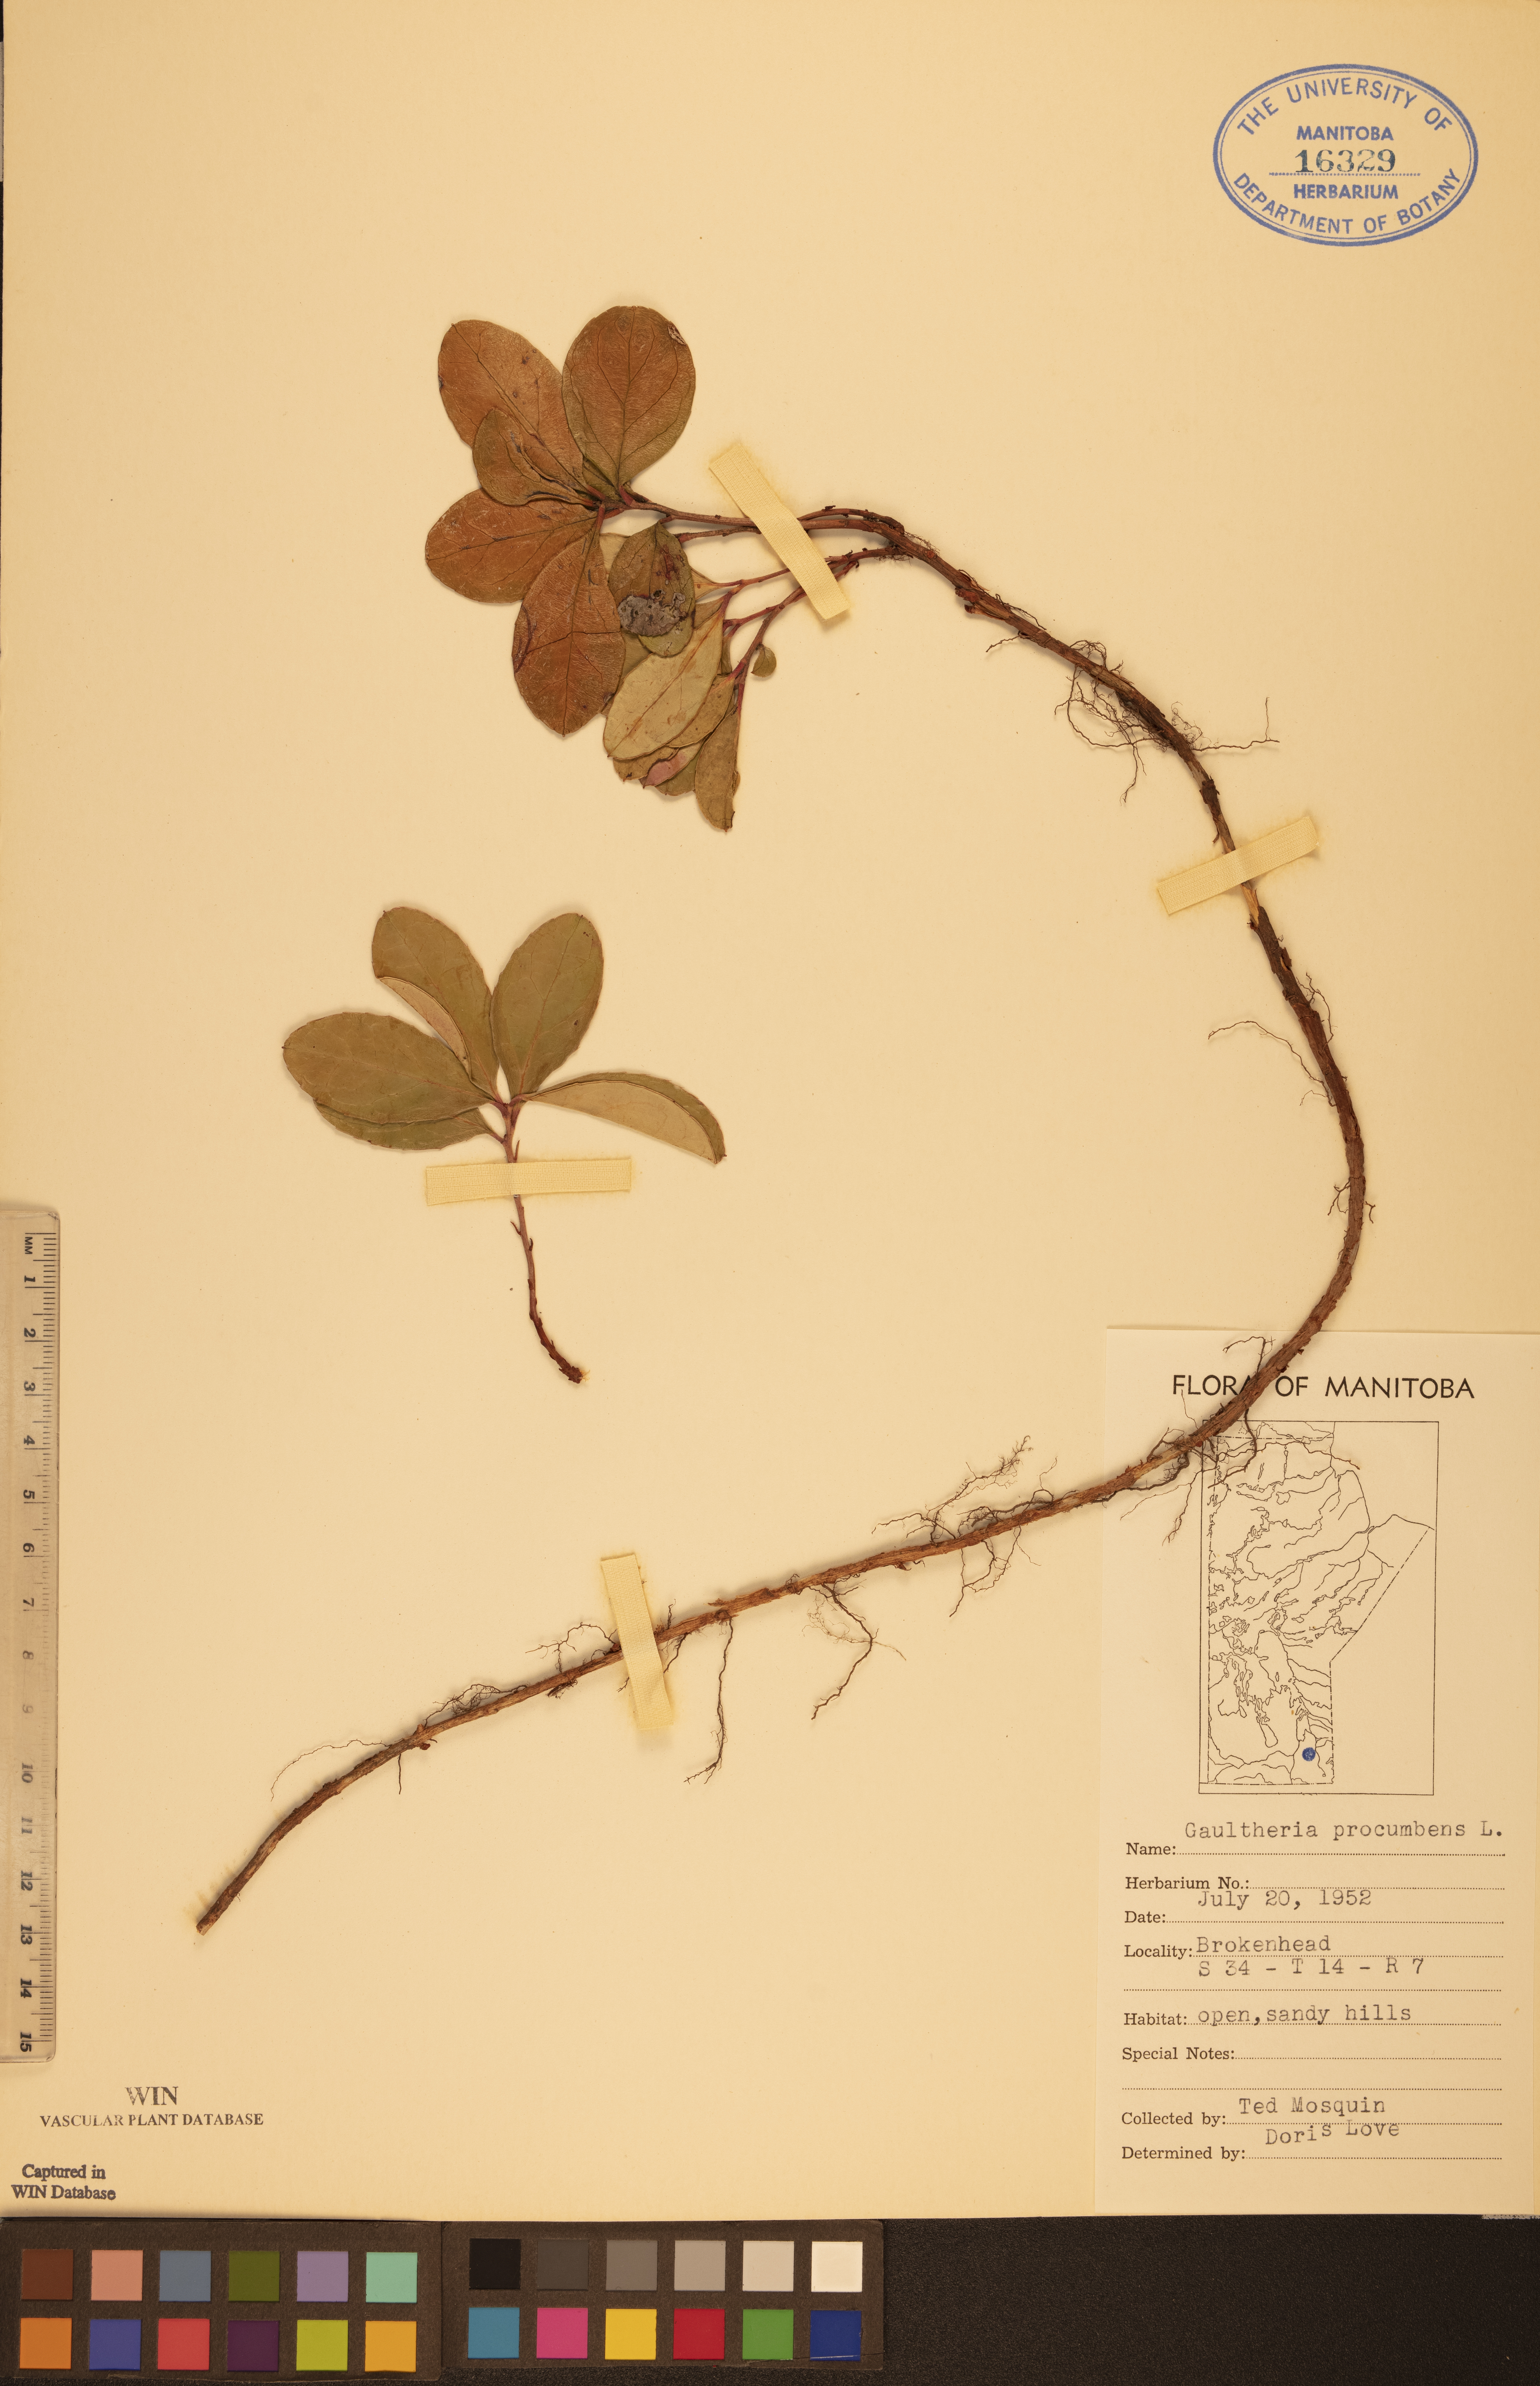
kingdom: Plantae
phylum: Tracheophyta
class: Magnoliopsida
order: Ericales
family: Ericaceae
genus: Gaultheria
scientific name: Gaultheria procumbens
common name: Checkerberry
